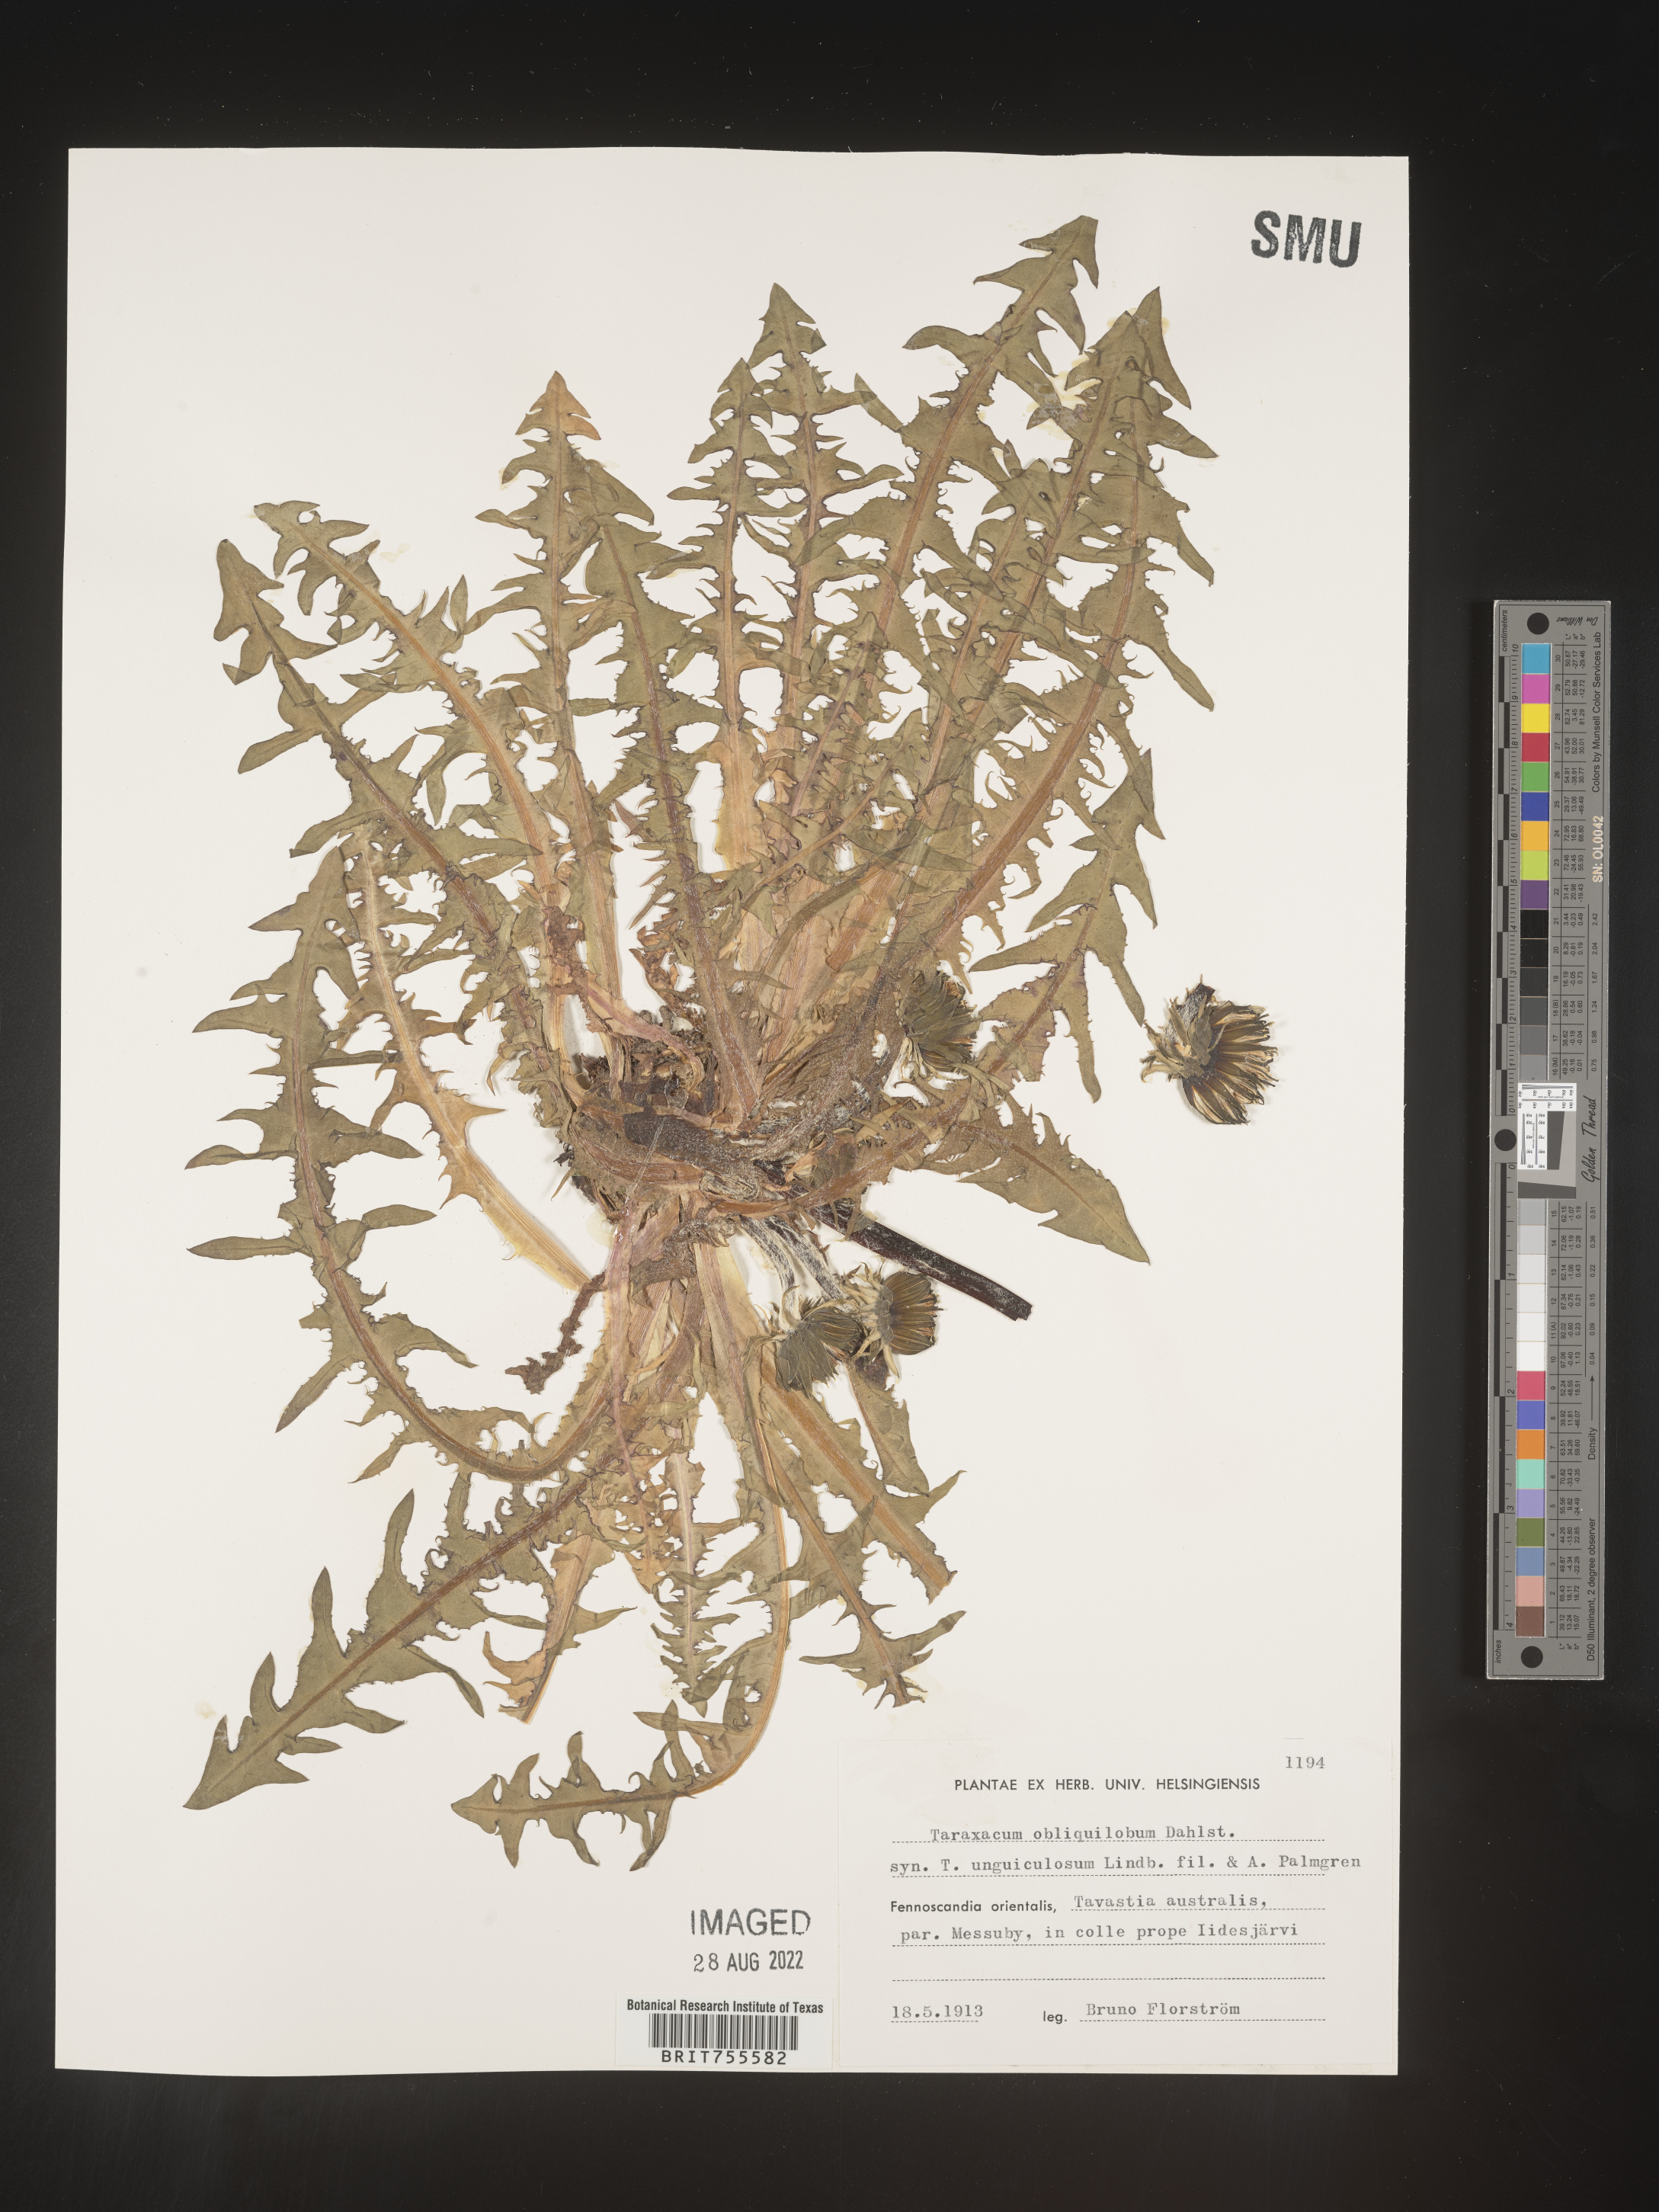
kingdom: Plantae
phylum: Tracheophyta
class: Magnoliopsida
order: Asterales
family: Asteraceae
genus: Taraxacum
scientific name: Taraxacum
